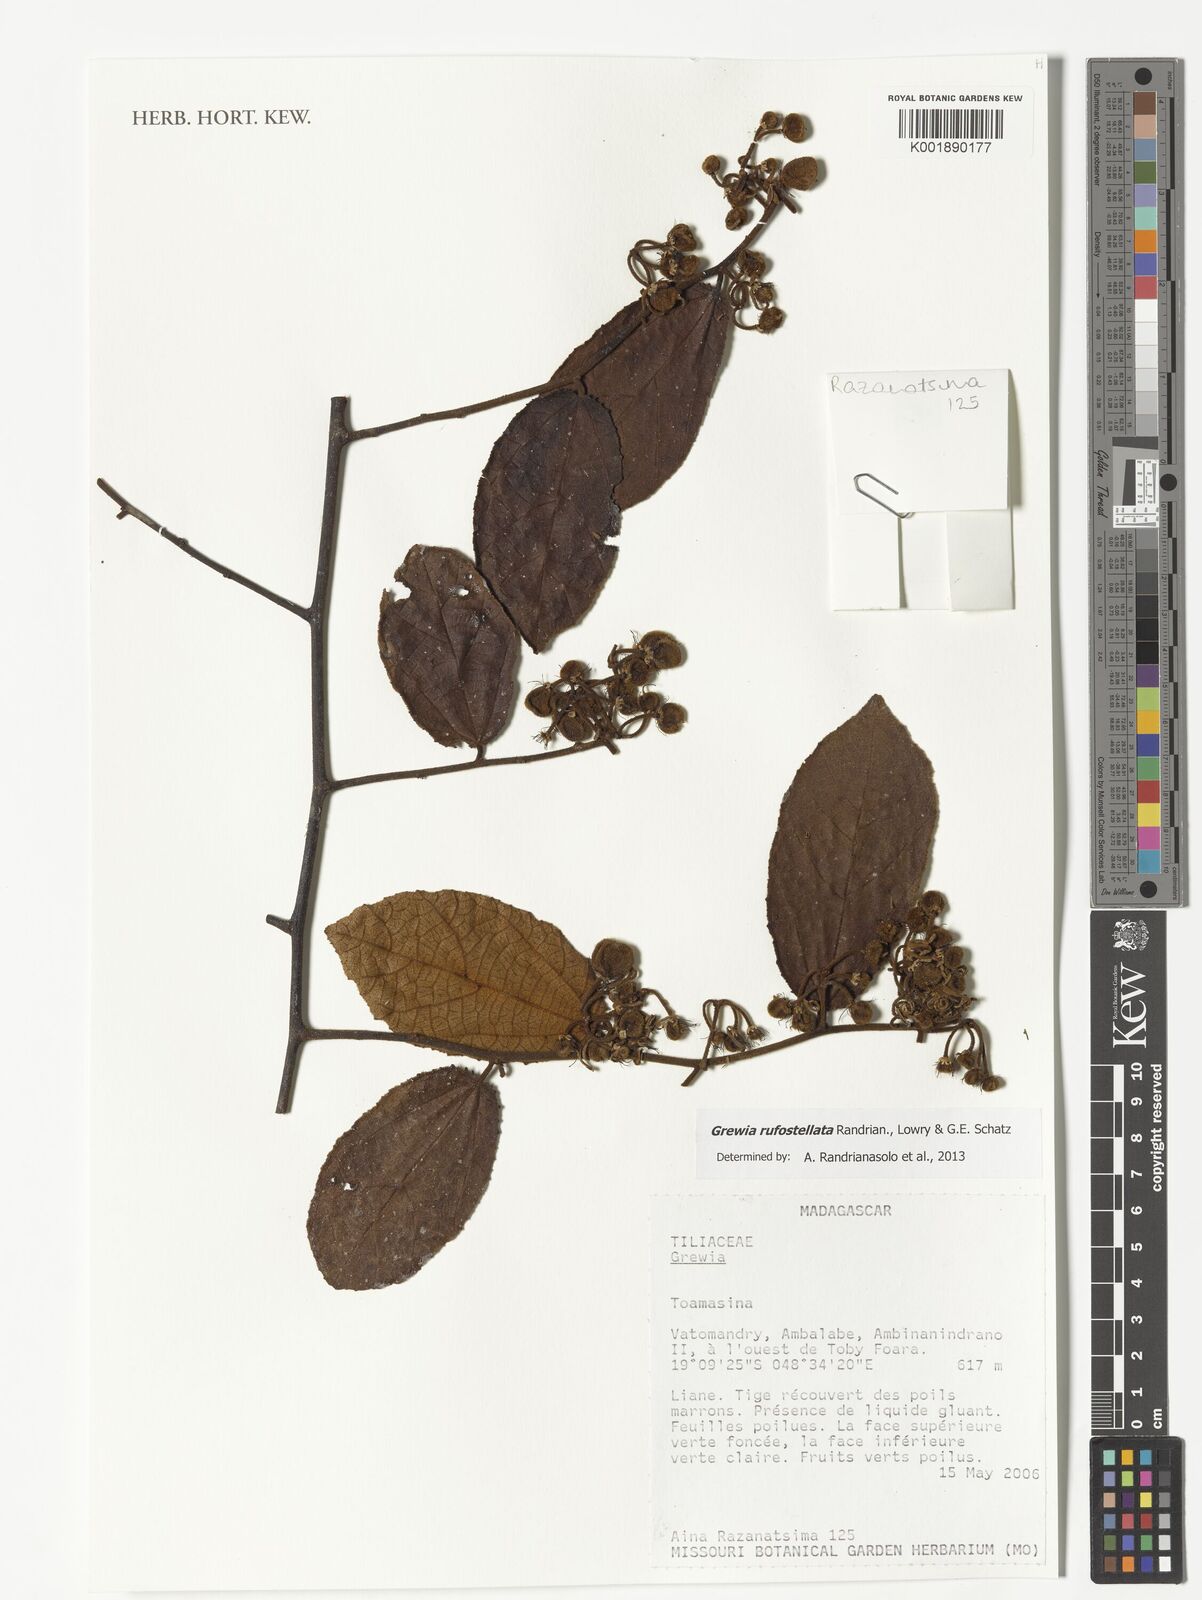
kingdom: Plantae
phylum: Tracheophyta
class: Magnoliopsida
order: Malvales
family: Malvaceae
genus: Grewia
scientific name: Grewia rufostellata
